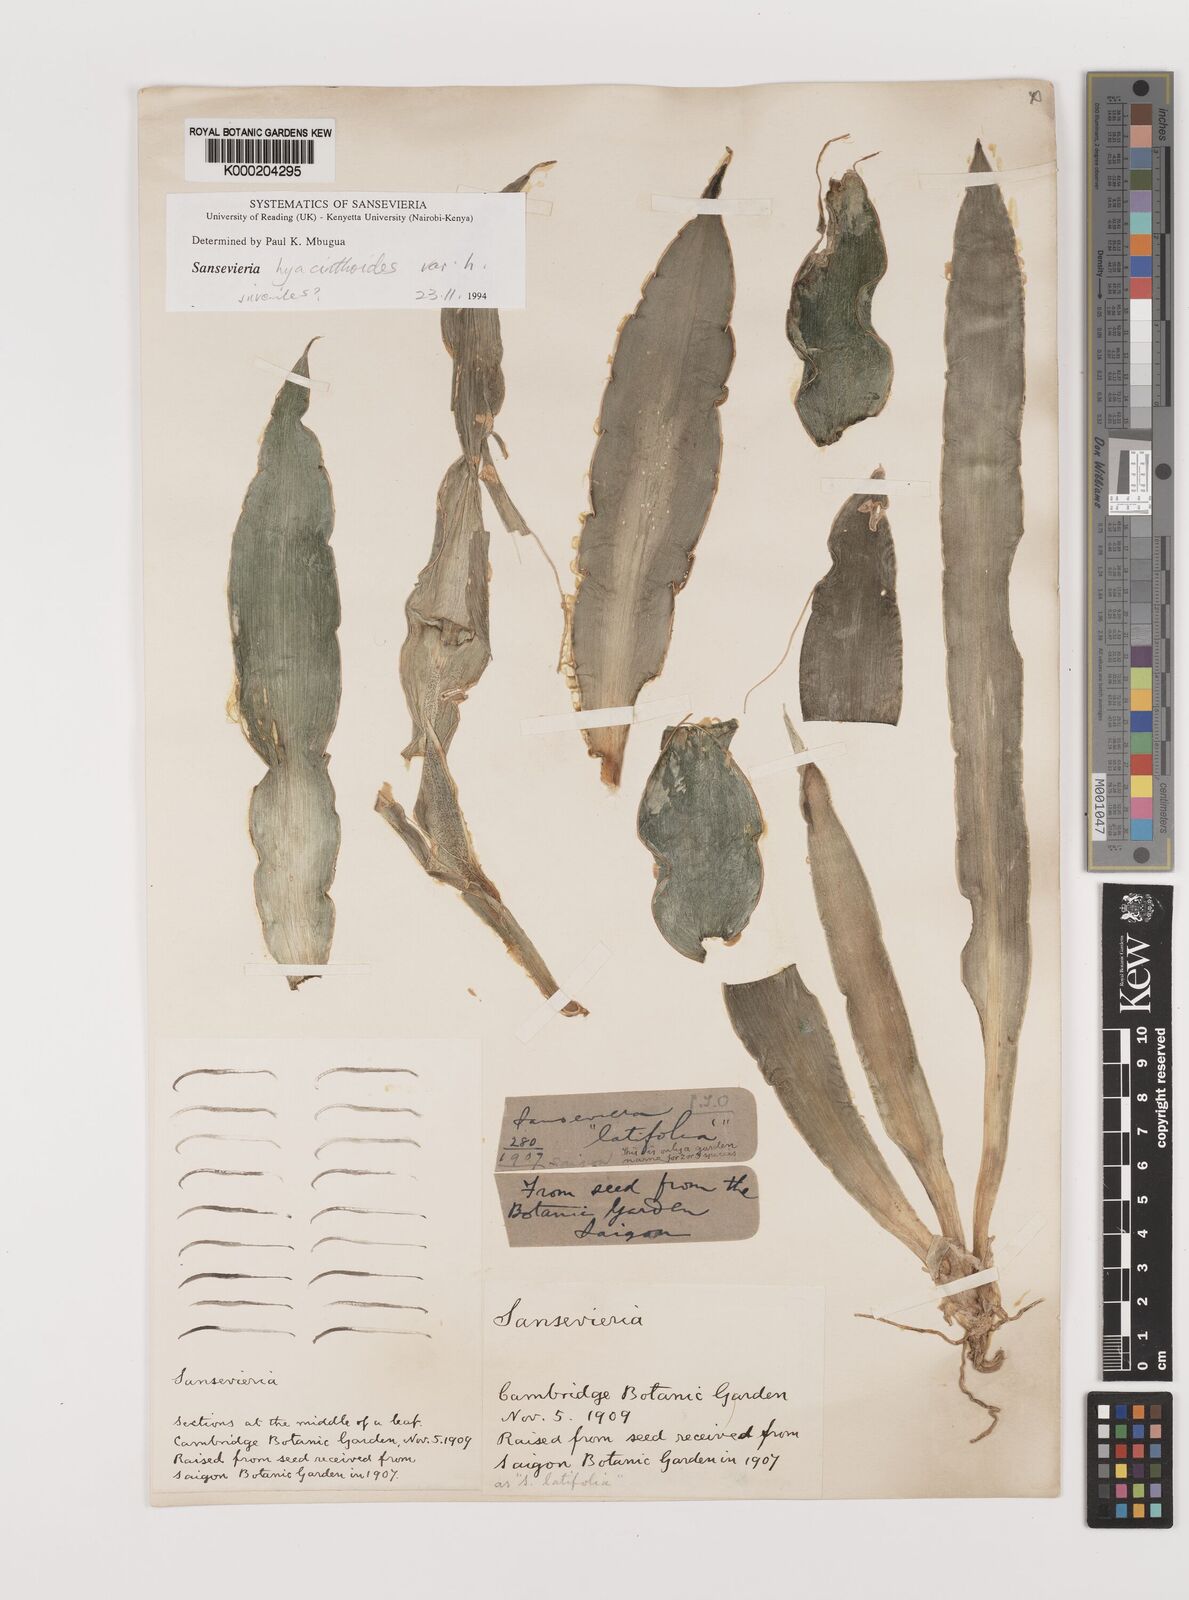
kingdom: Plantae
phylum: Tracheophyta
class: Liliopsida
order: Asparagales
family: Asparagaceae
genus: Dracaena
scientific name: Dracaena hyacinthoides
